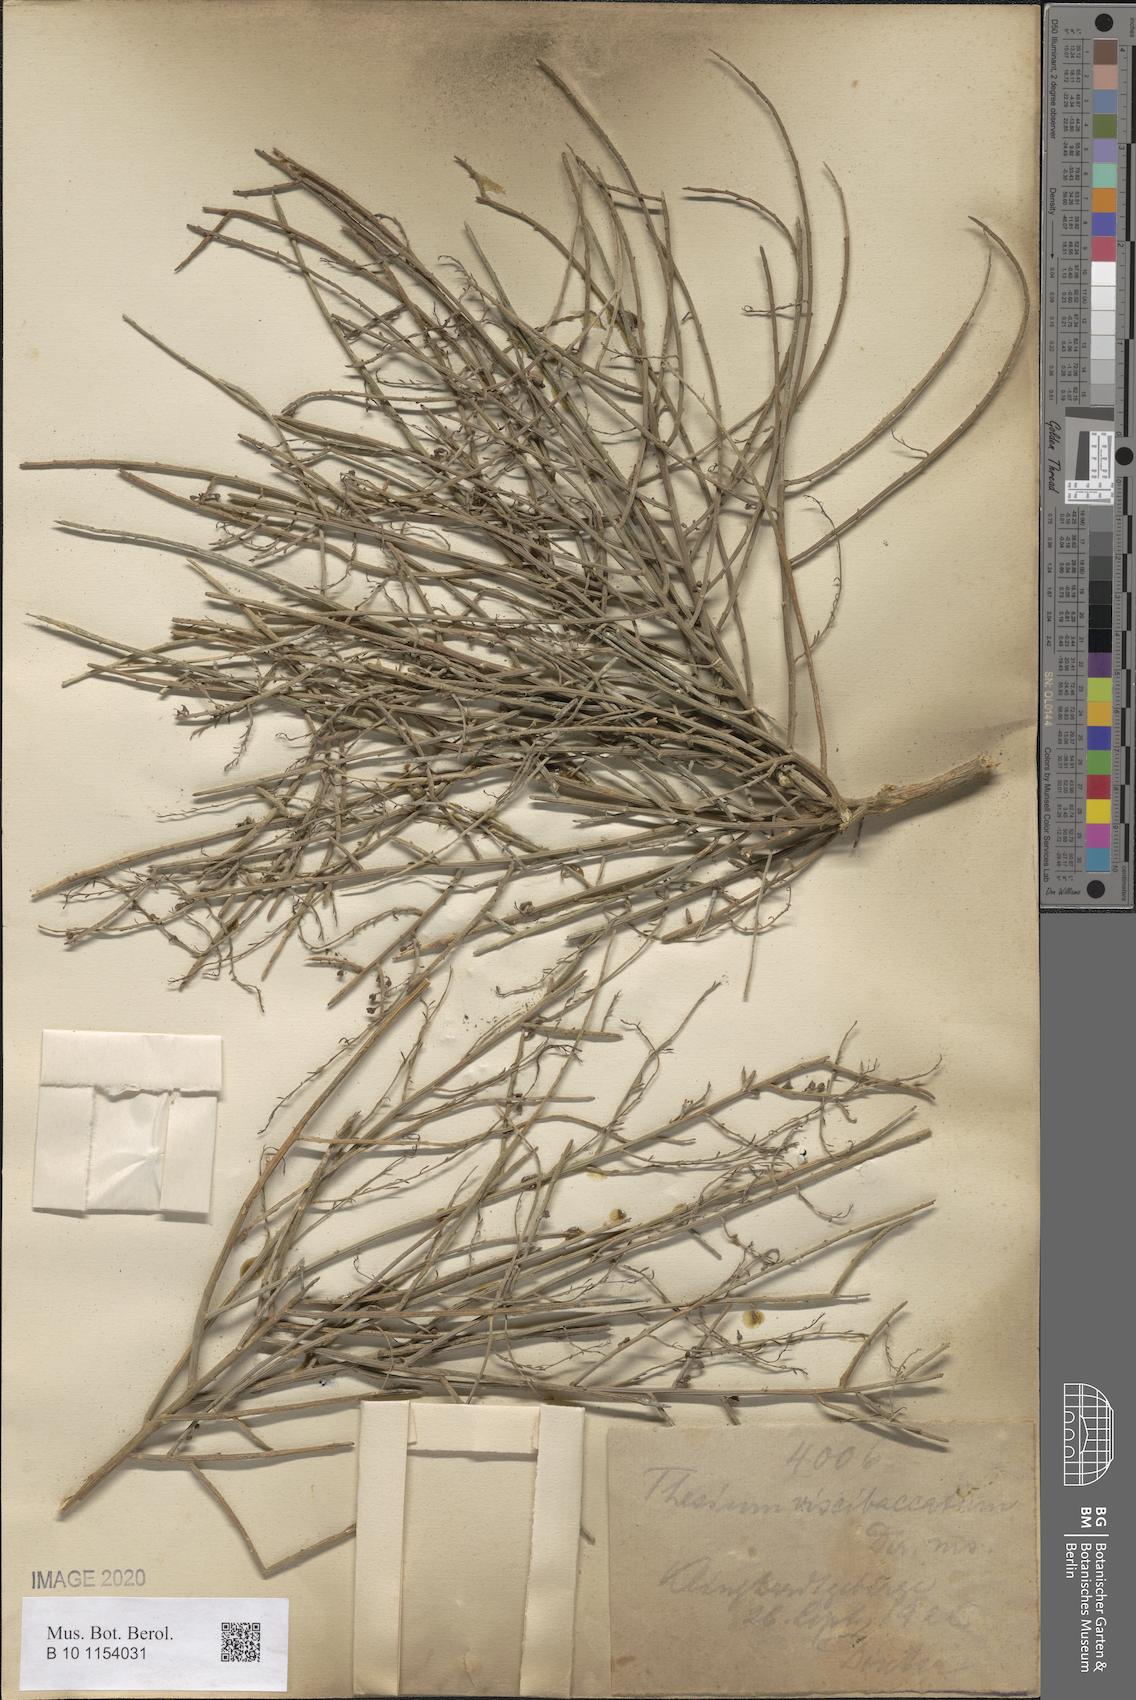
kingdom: Plantae
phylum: Tracheophyta
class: Magnoliopsida
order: Santalales
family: Thesiaceae
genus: Lacomucinaea
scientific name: Lacomucinaea lineata
